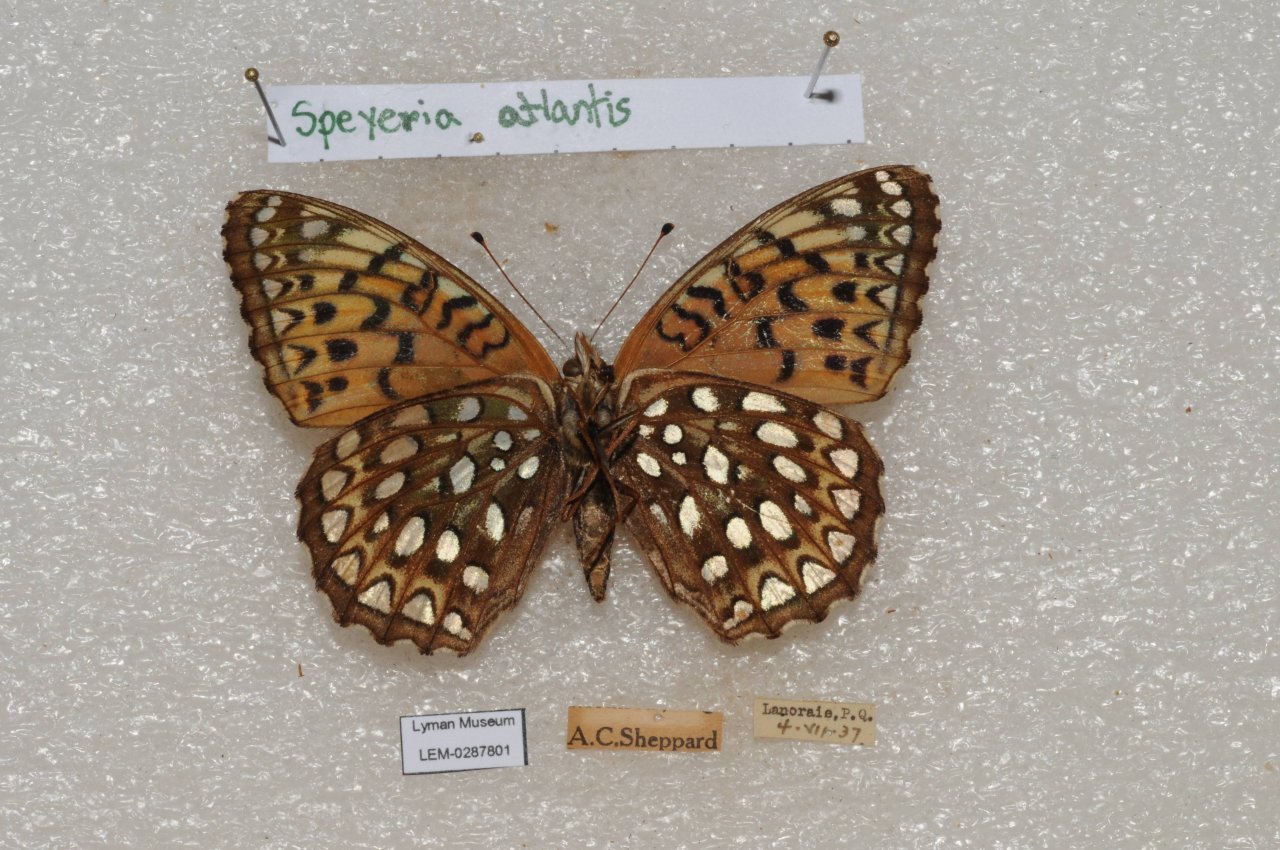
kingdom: Animalia
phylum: Arthropoda
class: Insecta
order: Lepidoptera
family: Nymphalidae
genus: Speyeria
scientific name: Speyeria atlantis
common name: Atlantis Fritillary
